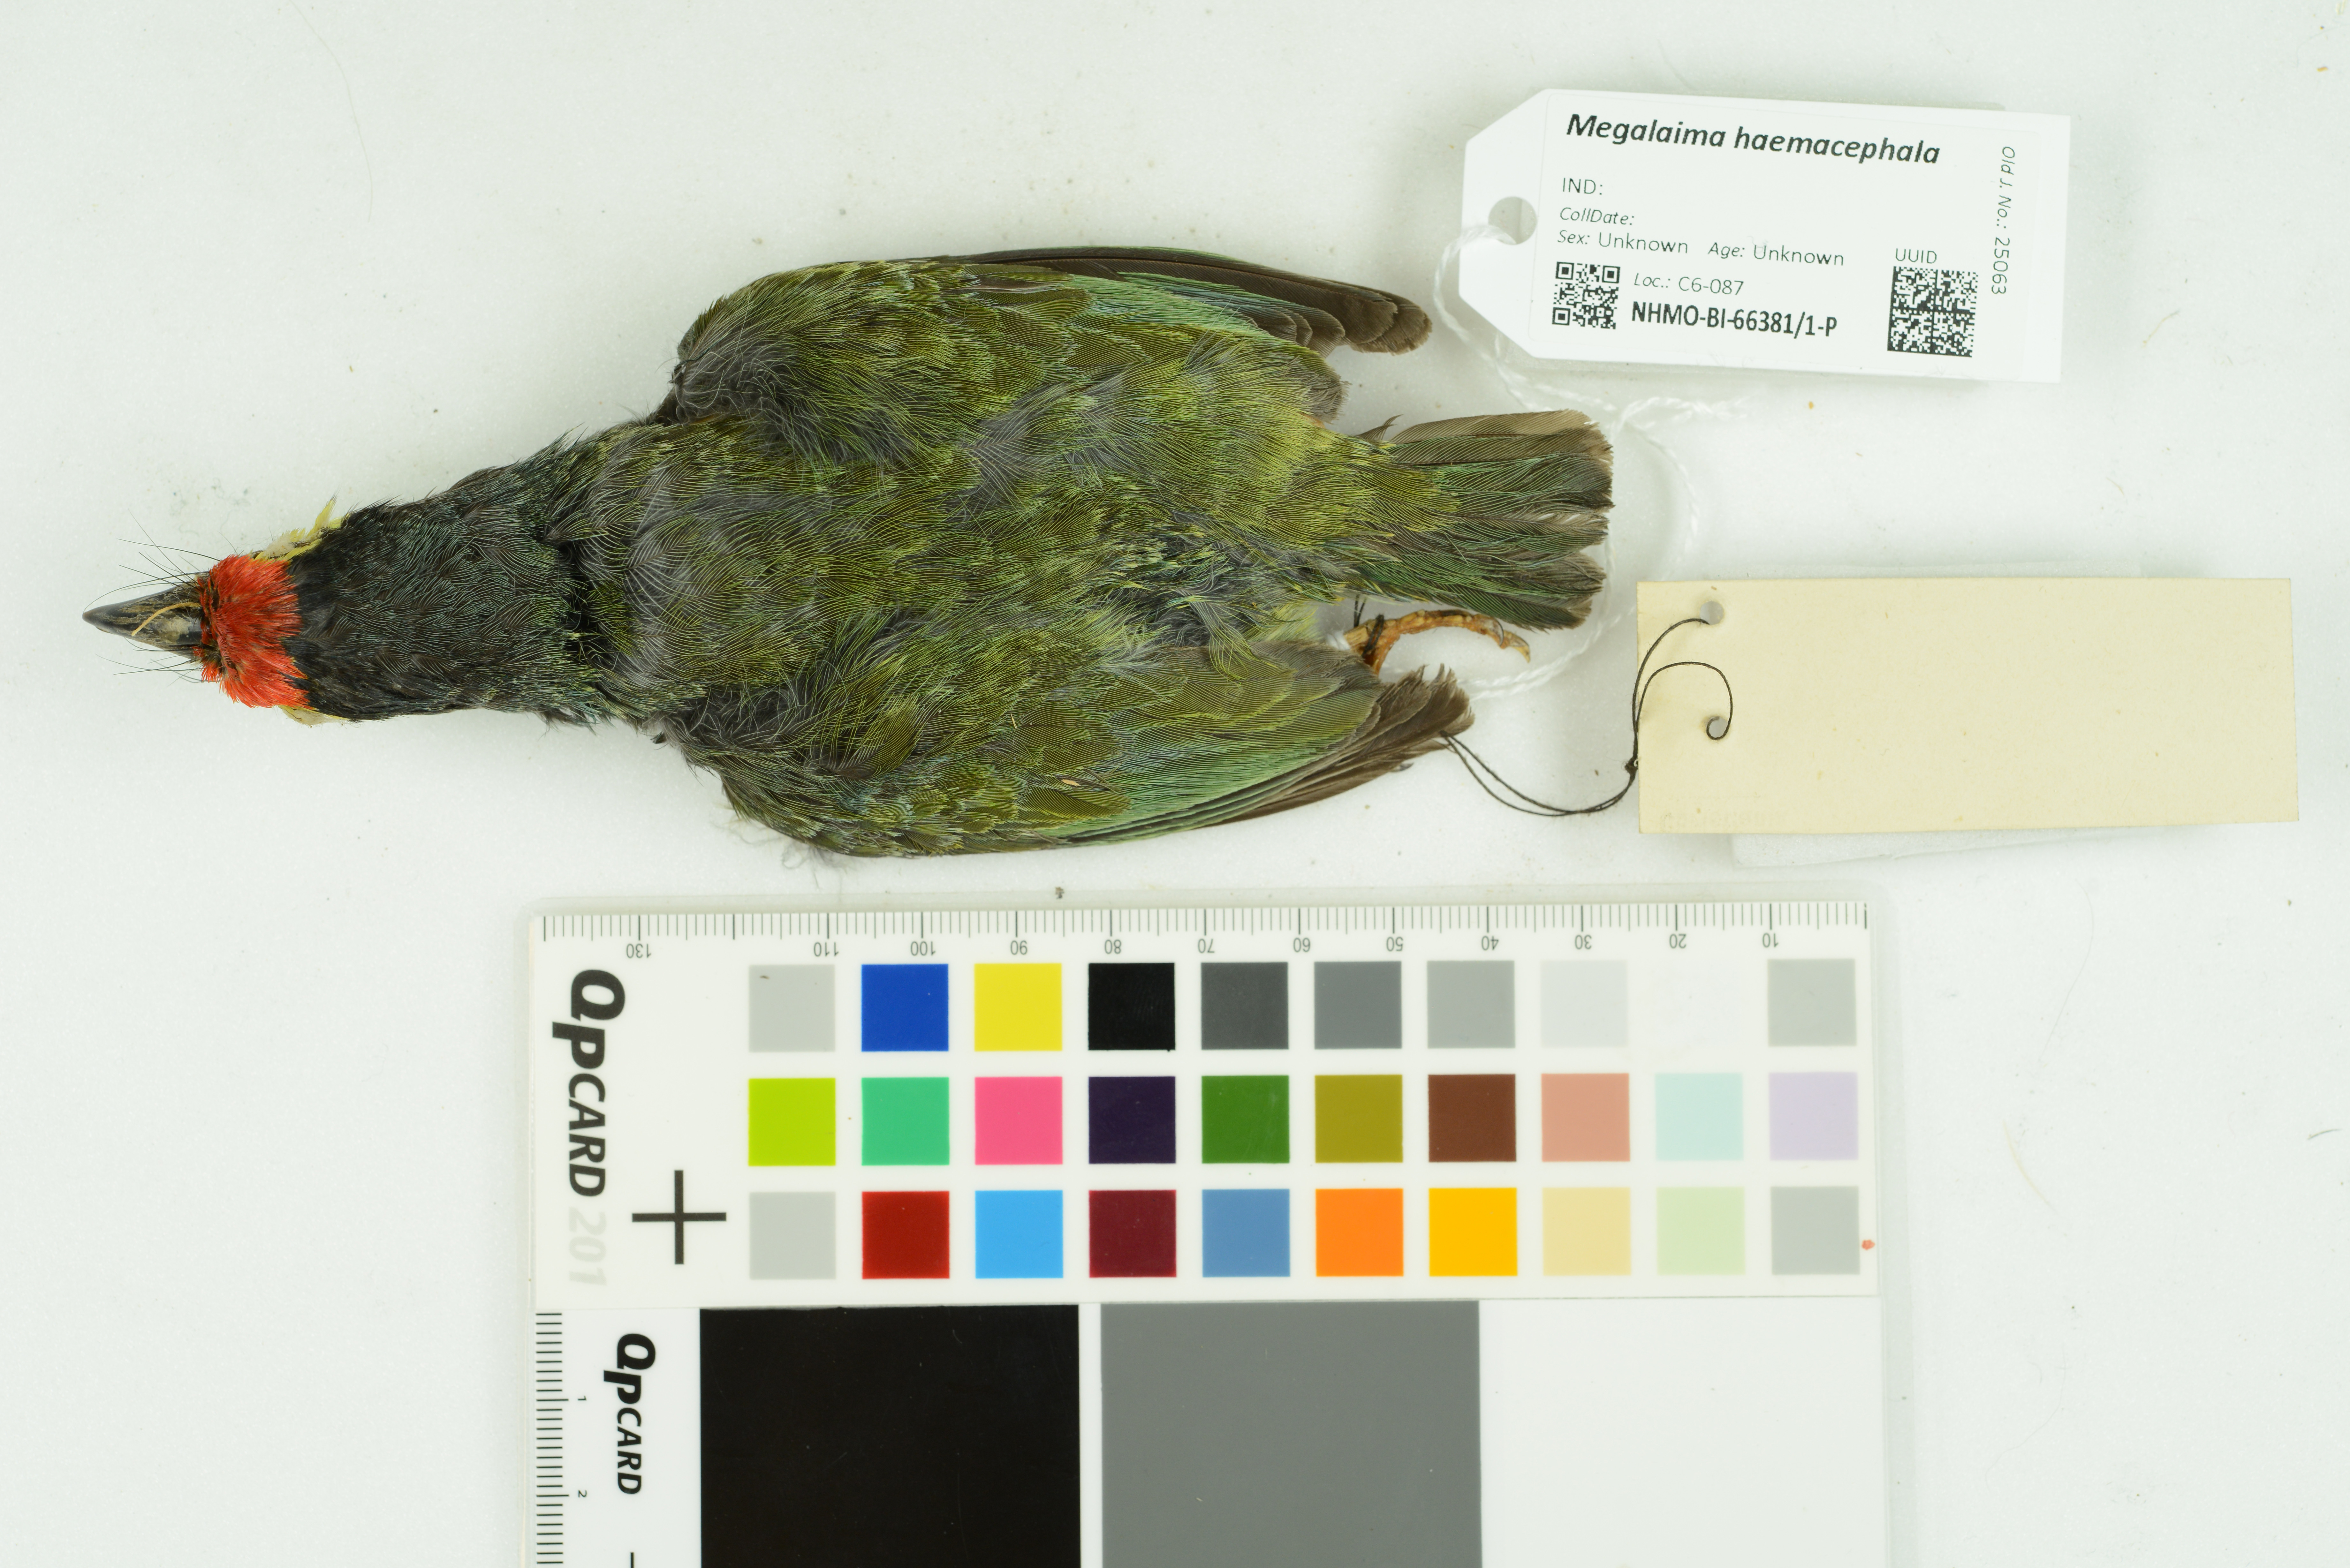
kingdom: Animalia
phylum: Chordata
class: Aves
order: Piciformes
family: Megalaimidae
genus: Psilopogon
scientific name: Psilopogon haemacephalus
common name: Coppersmith barbet
